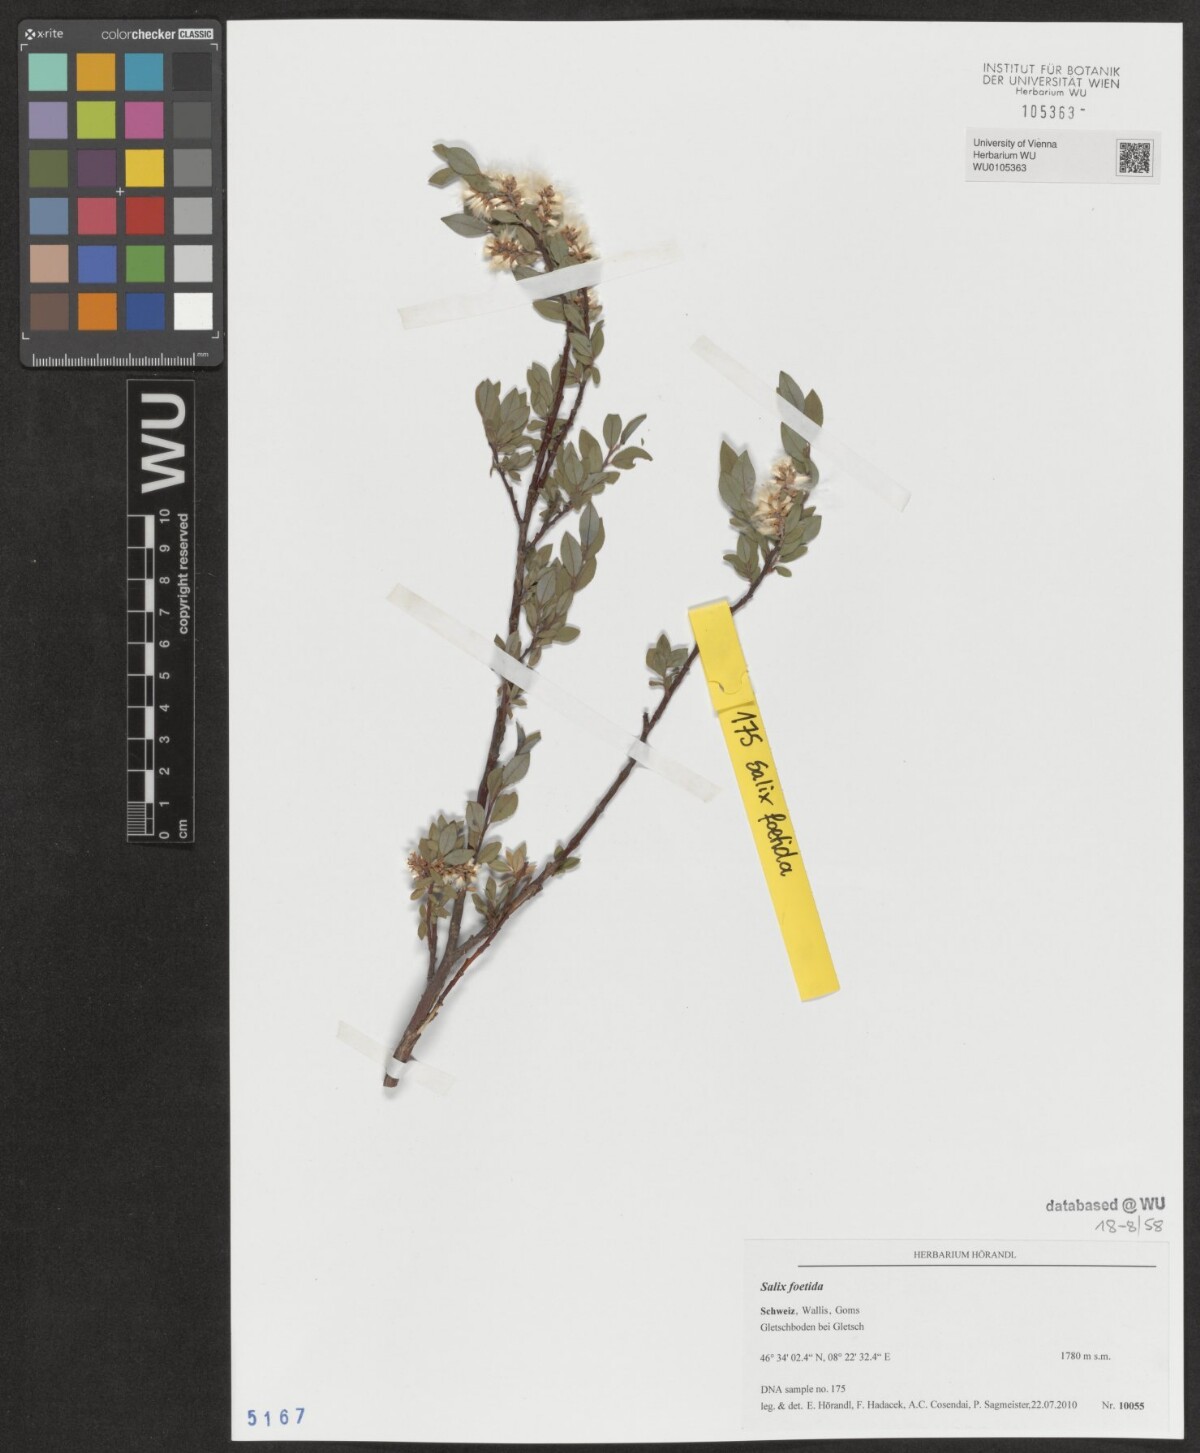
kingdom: Plantae
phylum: Tracheophyta
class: Magnoliopsida
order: Malpighiales
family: Salicaceae
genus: Salix
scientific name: Salix foetida
